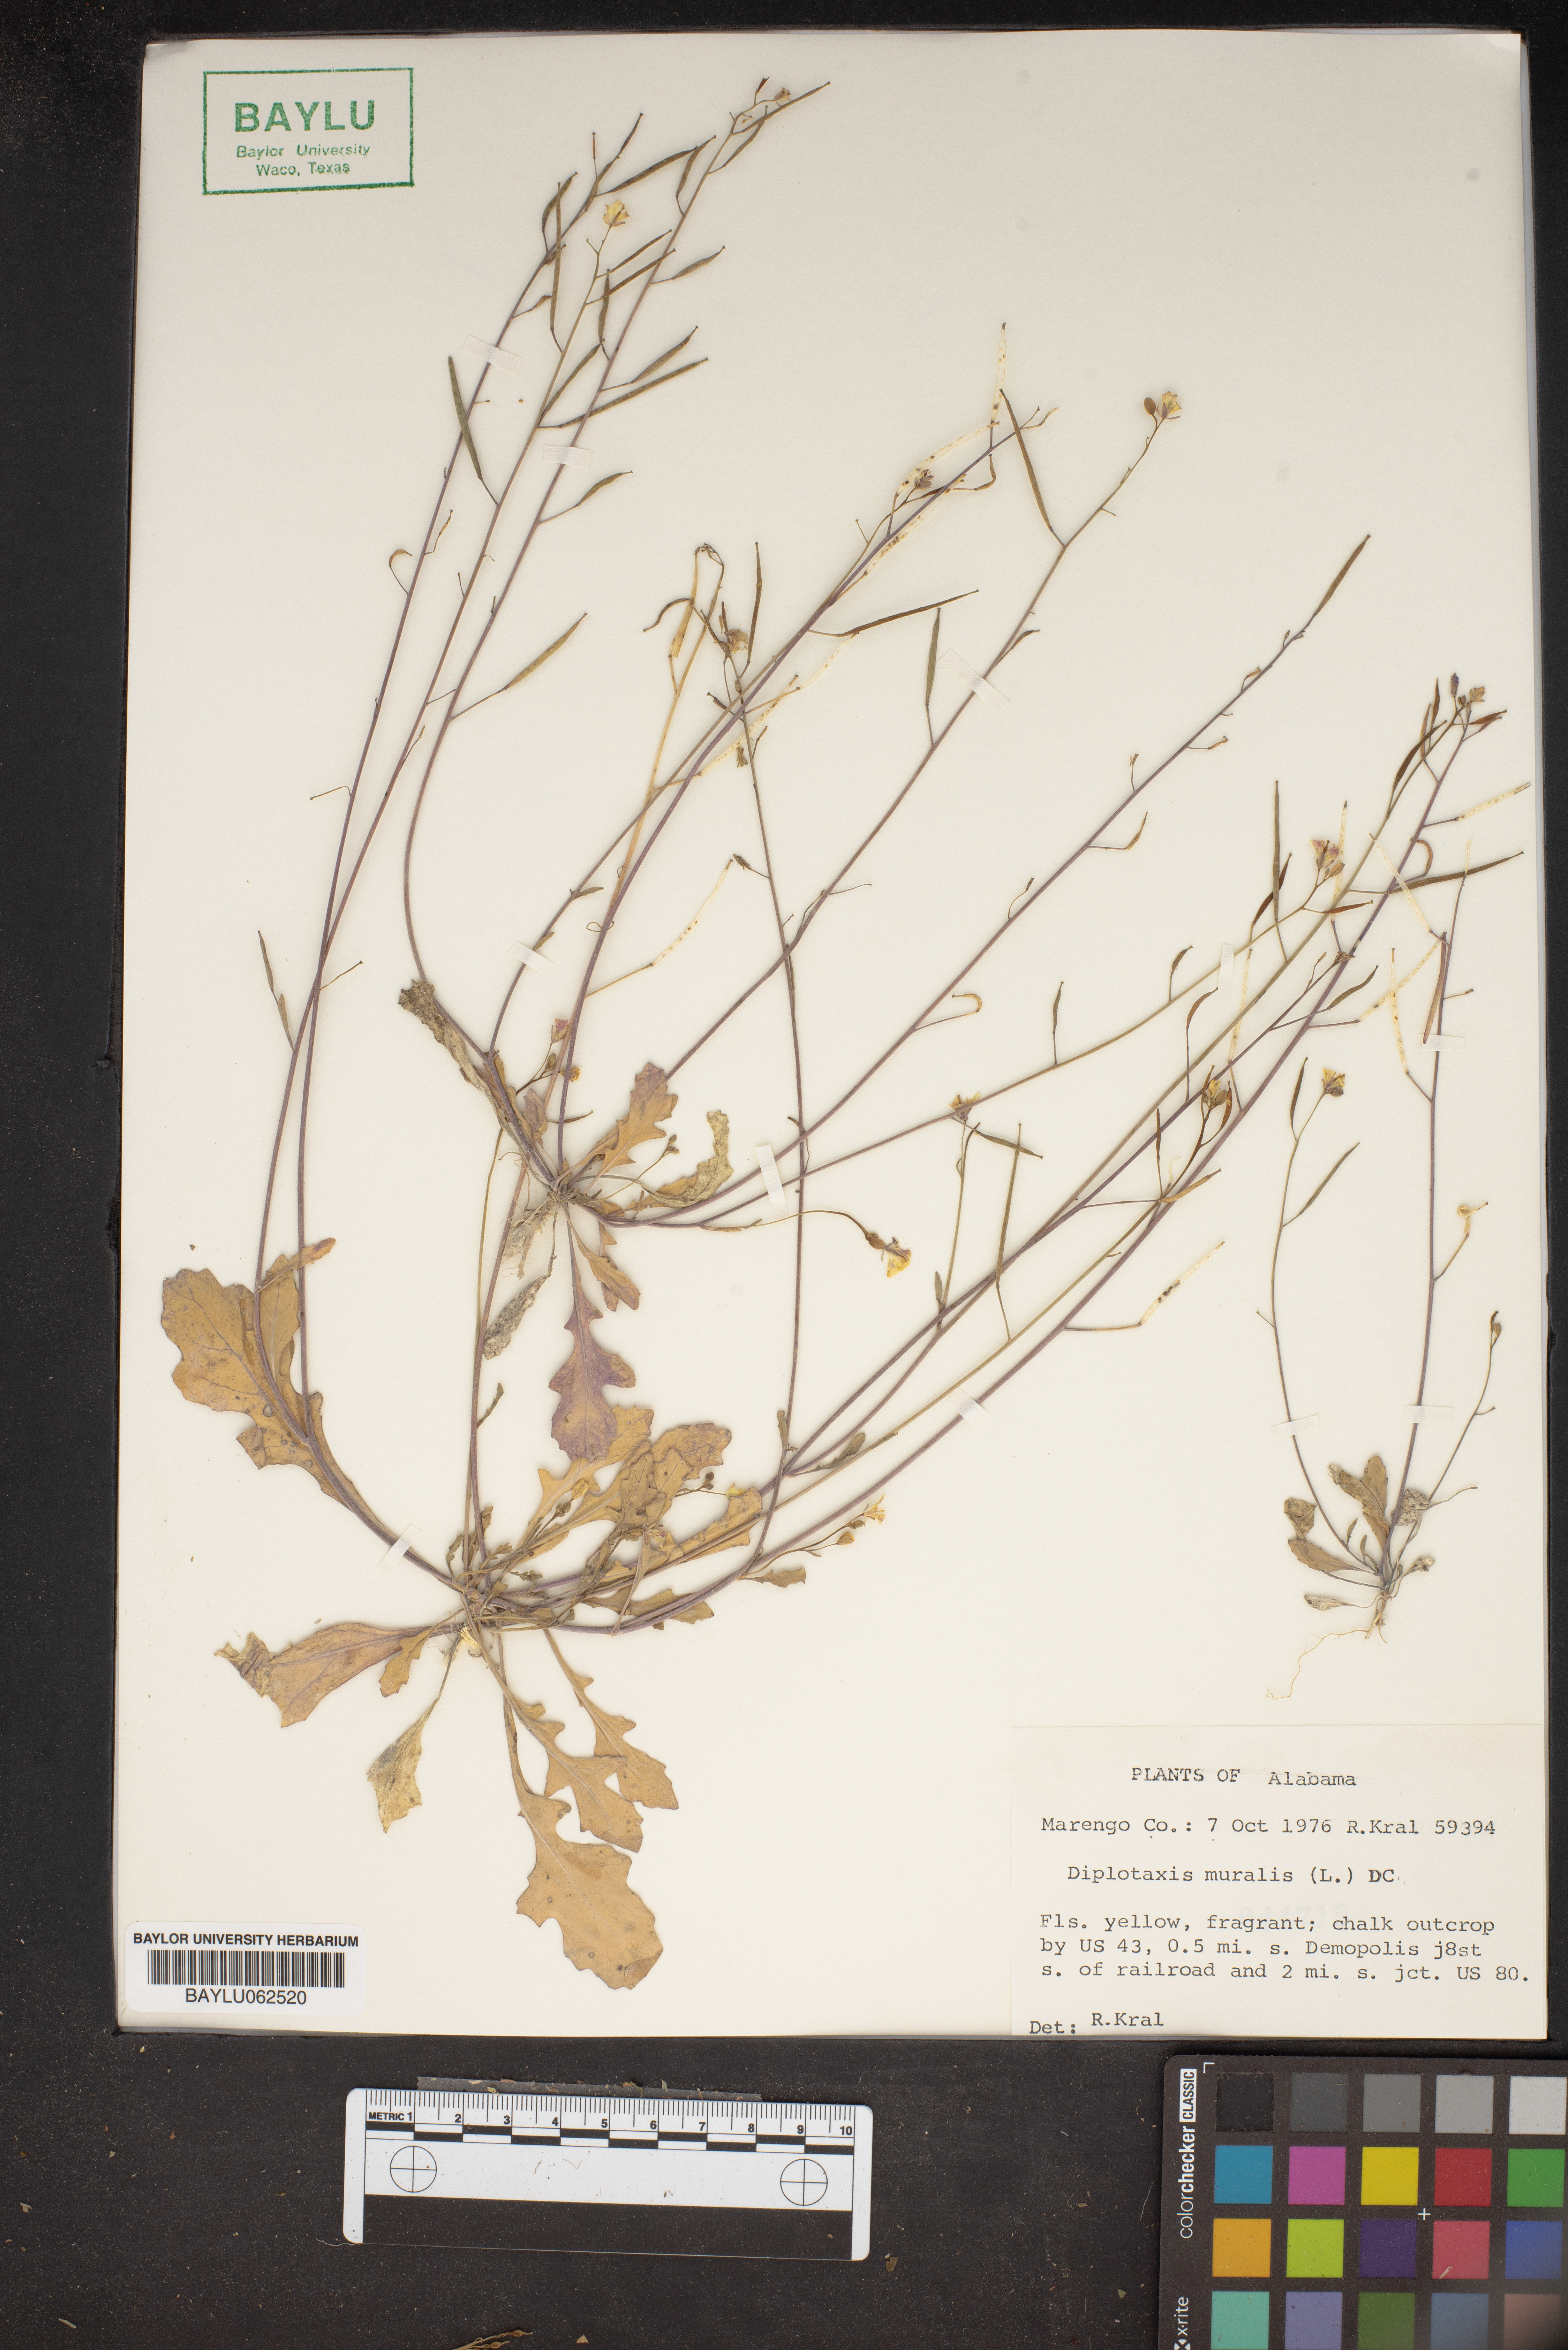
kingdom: Plantae
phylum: Tracheophyta
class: Magnoliopsida
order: Brassicales
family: Brassicaceae
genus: Diplotaxis
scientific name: Diplotaxis muralis
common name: Annual wall-rocket
